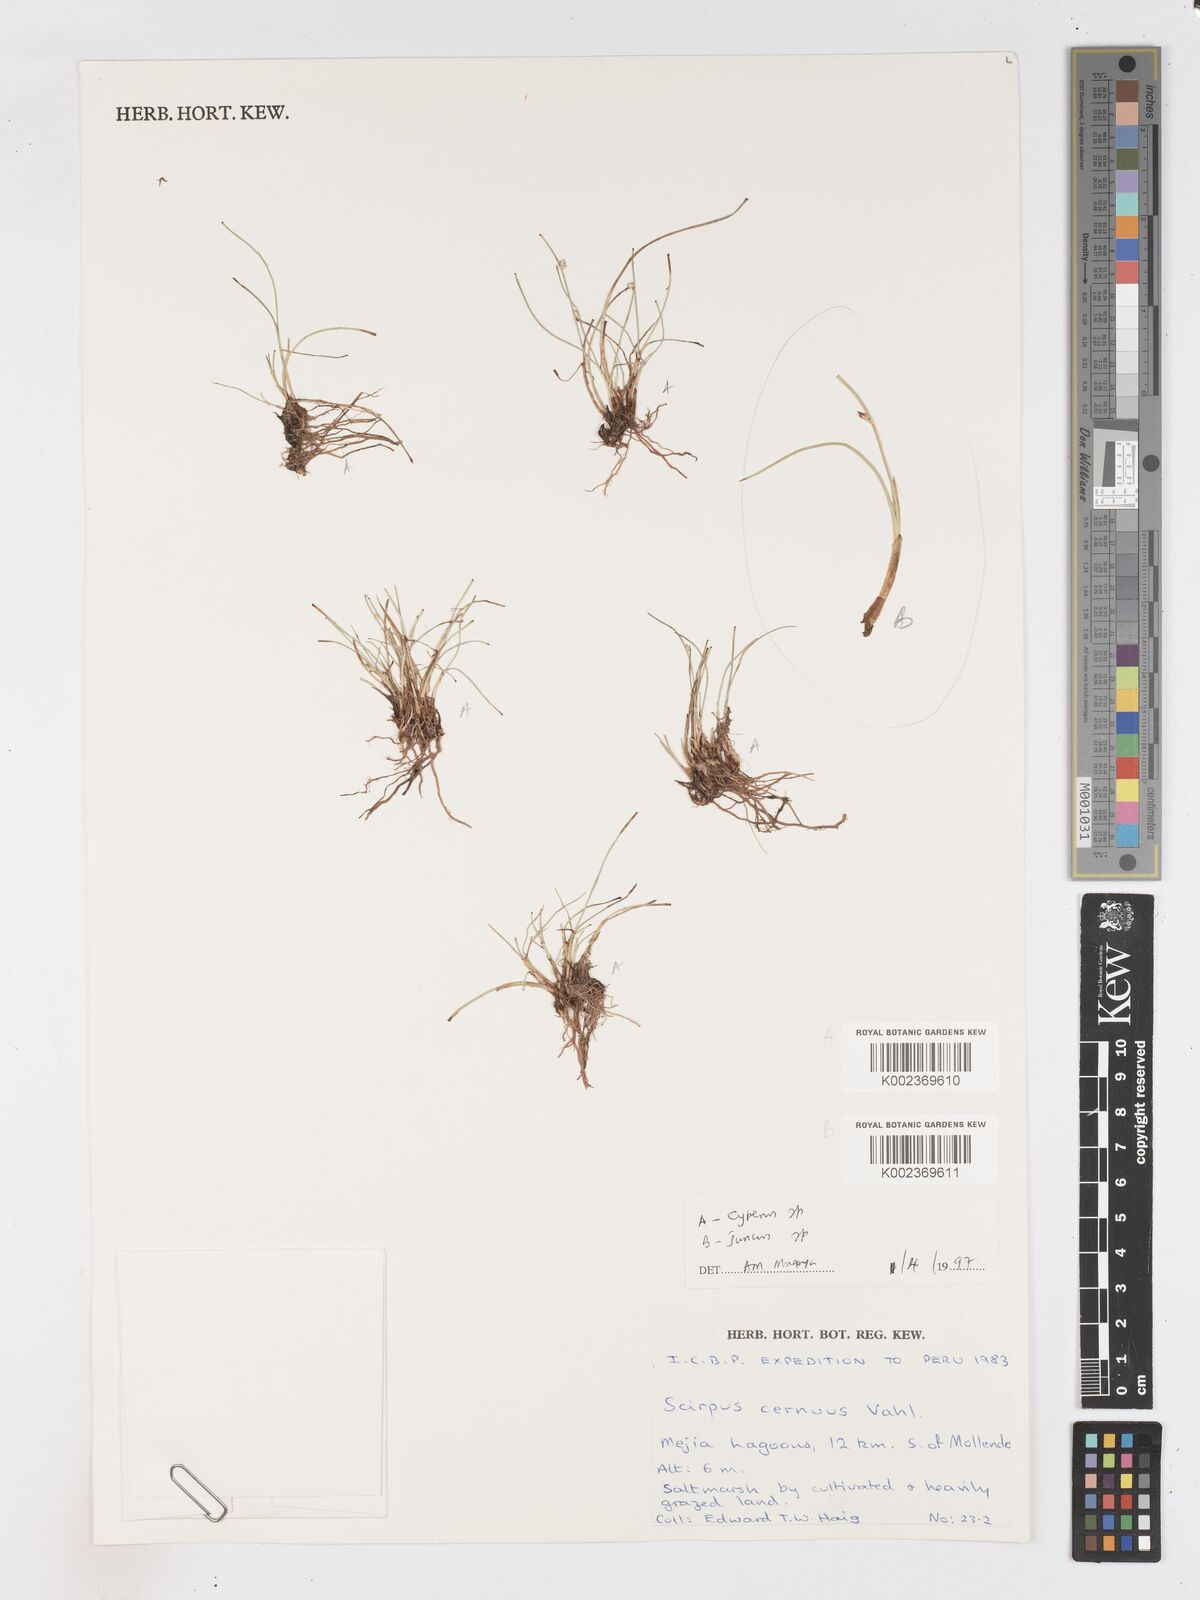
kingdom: Plantae
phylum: Tracheophyta
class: Liliopsida
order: Poales
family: Cyperaceae
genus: Isolepis
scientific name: Isolepis cernua
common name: Slender club-rush
